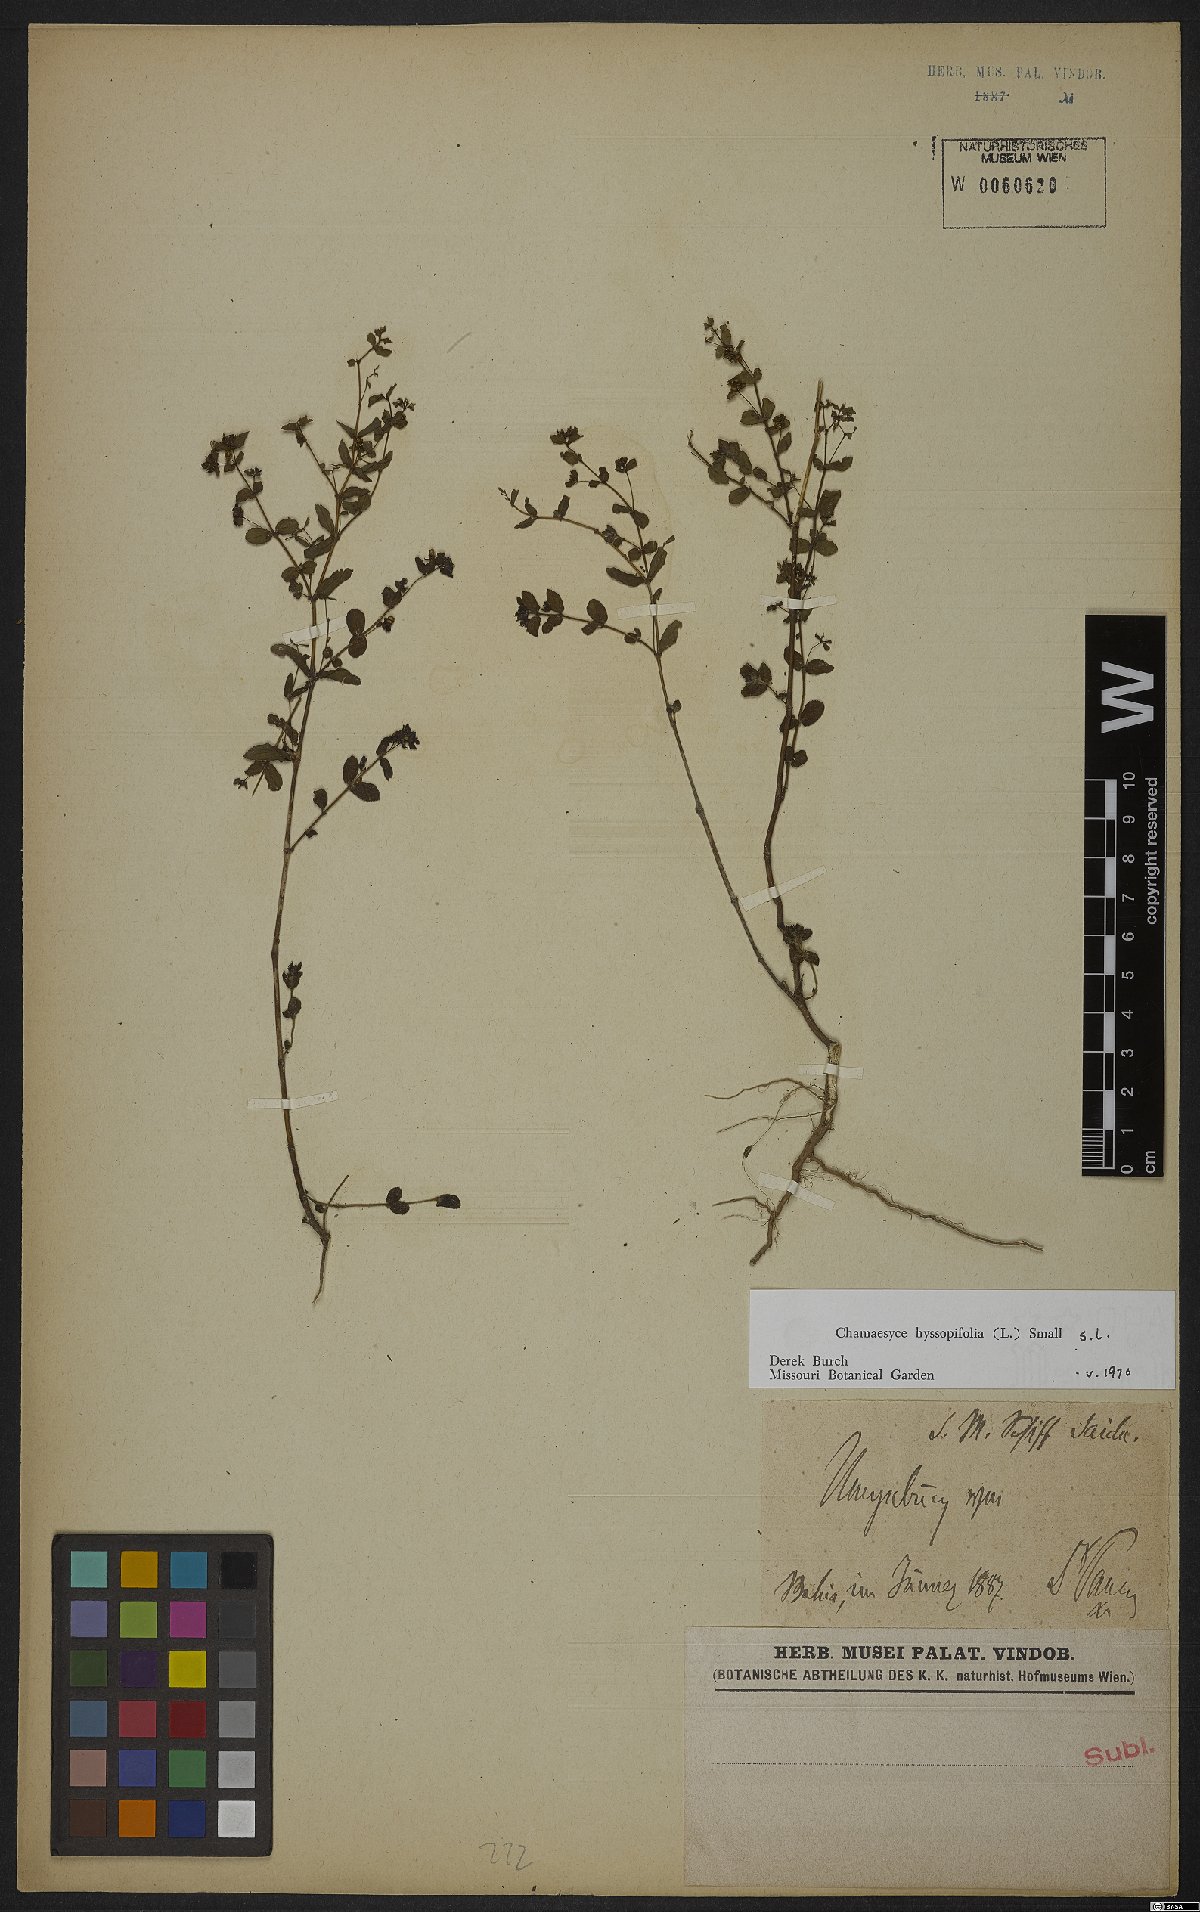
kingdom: Plantae
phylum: Tracheophyta
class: Magnoliopsida
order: Malpighiales
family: Euphorbiaceae
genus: Euphorbia
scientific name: Euphorbia hyssopifolia
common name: Hyssopleaf sandmat
